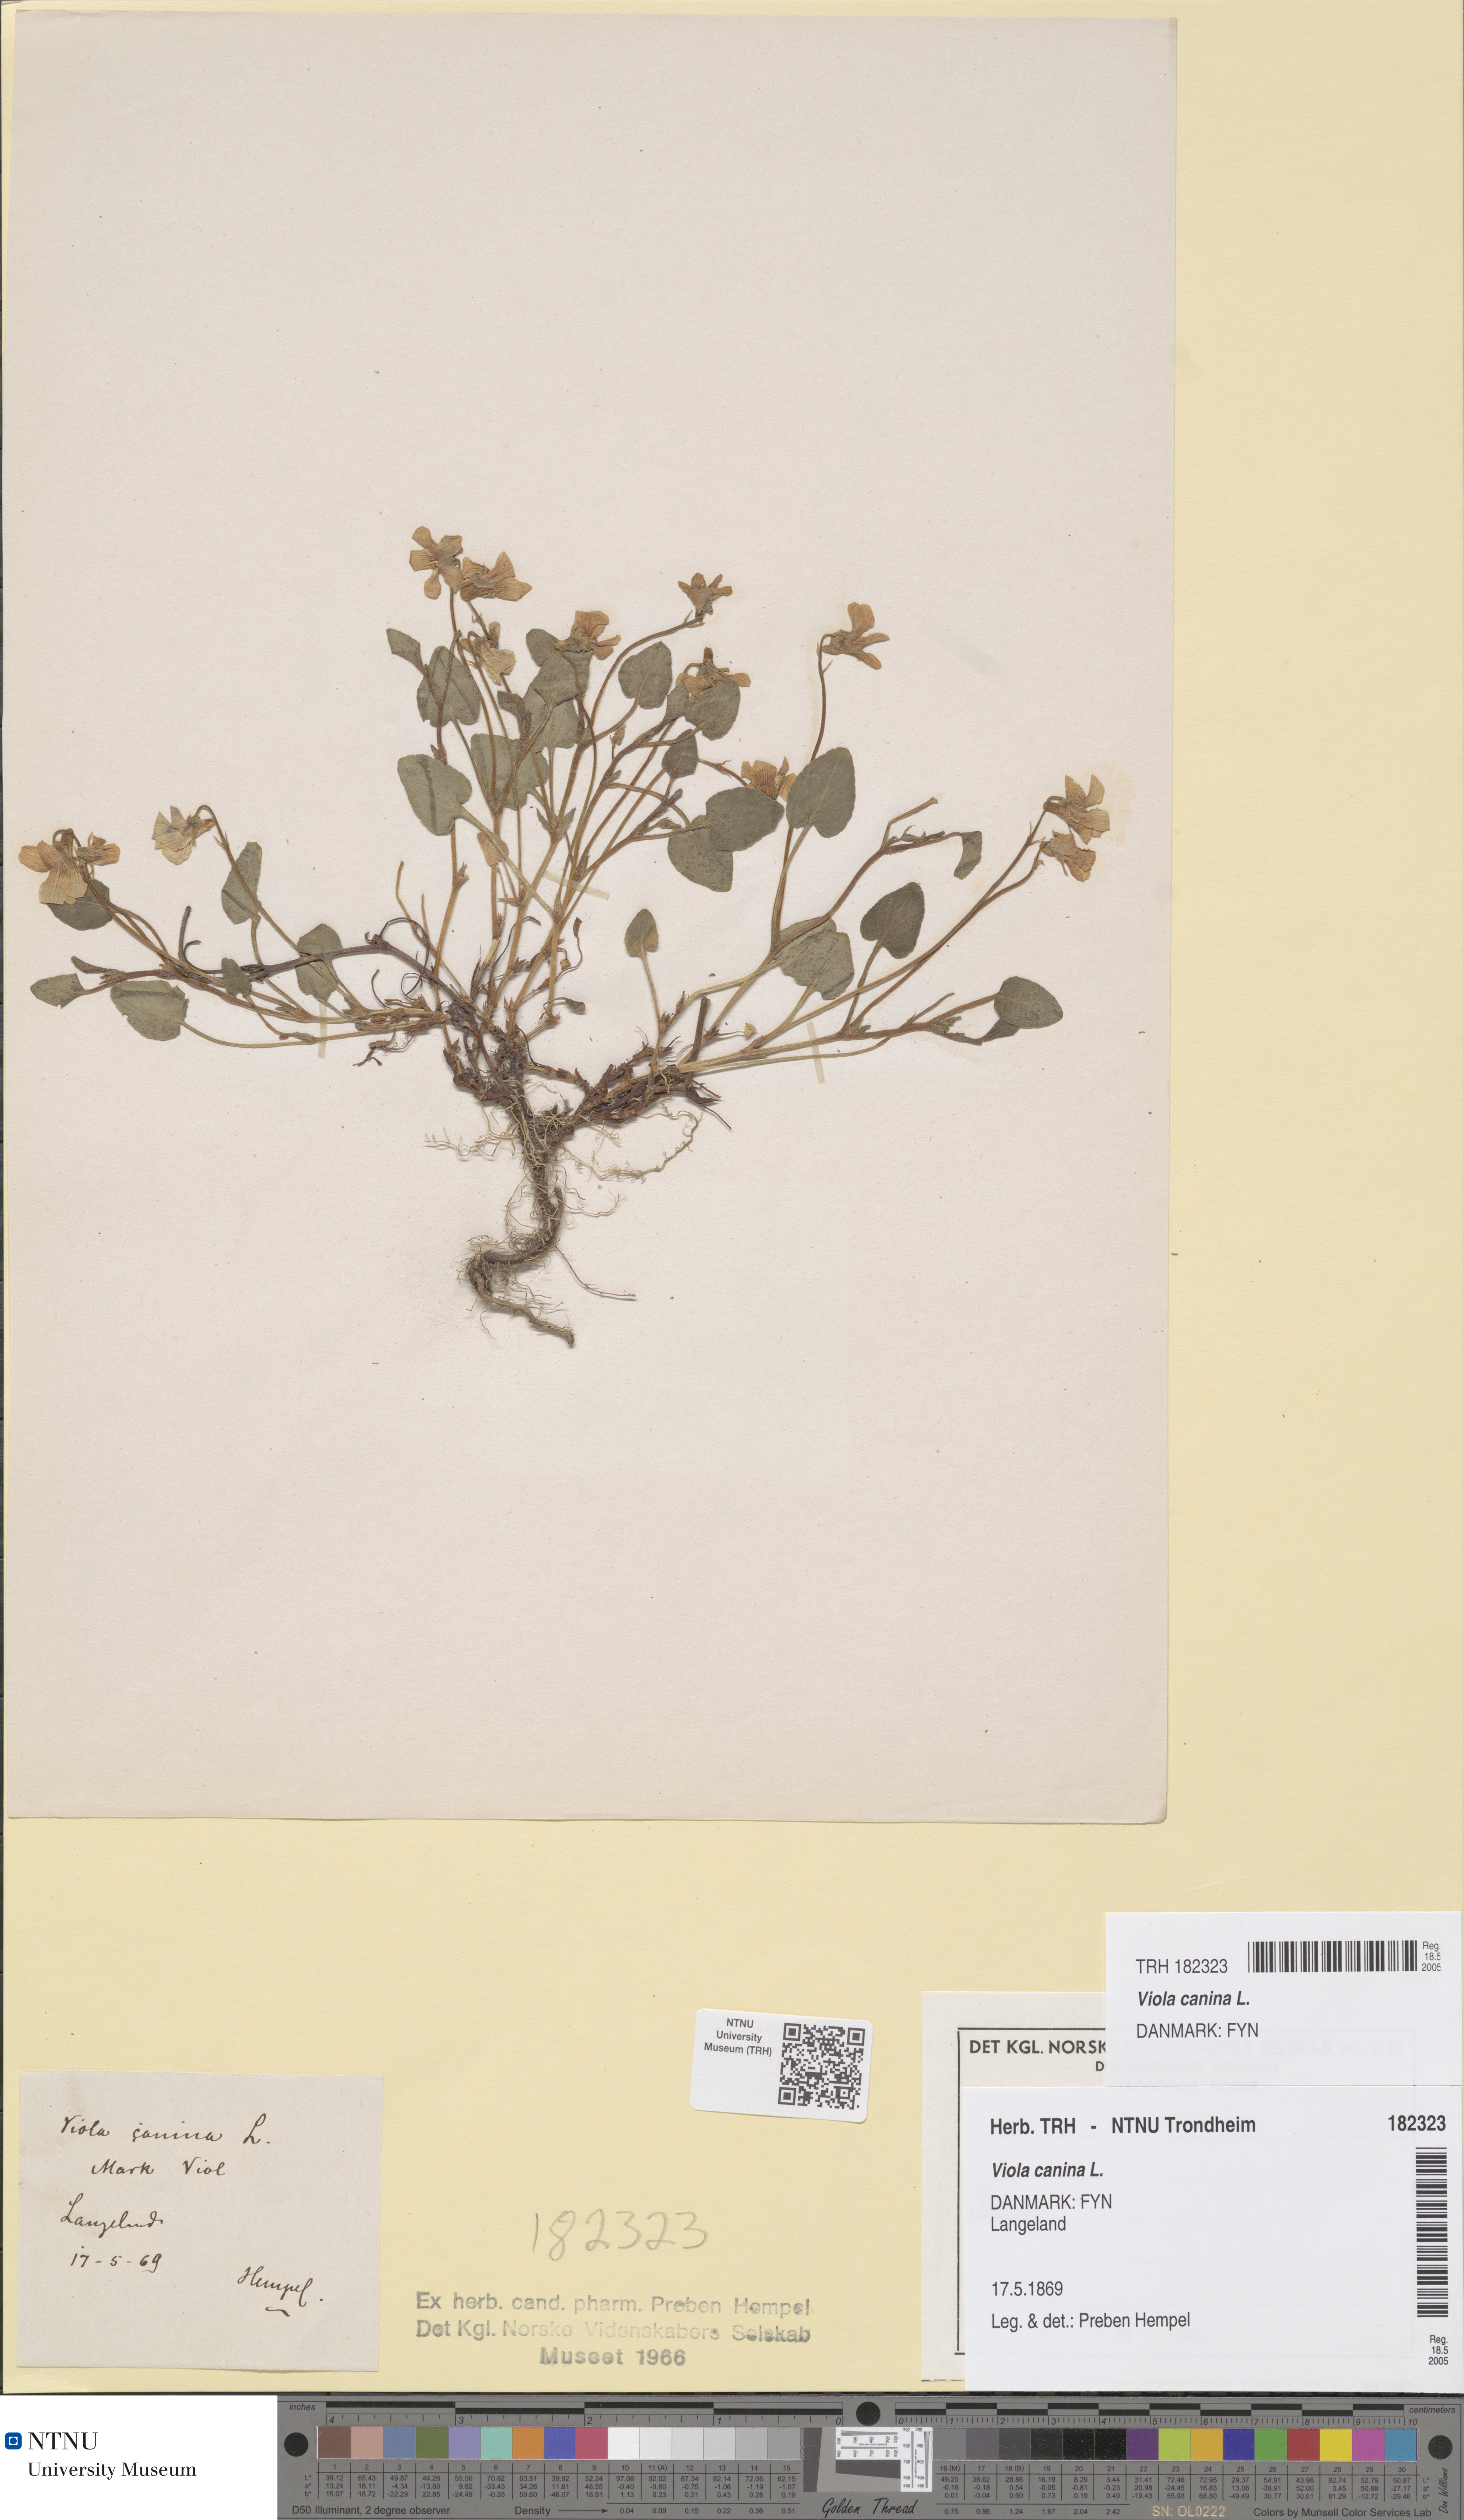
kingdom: Plantae
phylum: Tracheophyta
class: Magnoliopsida
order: Malpighiales
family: Violaceae
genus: Viola
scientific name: Viola canina
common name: Heath dog-violet
